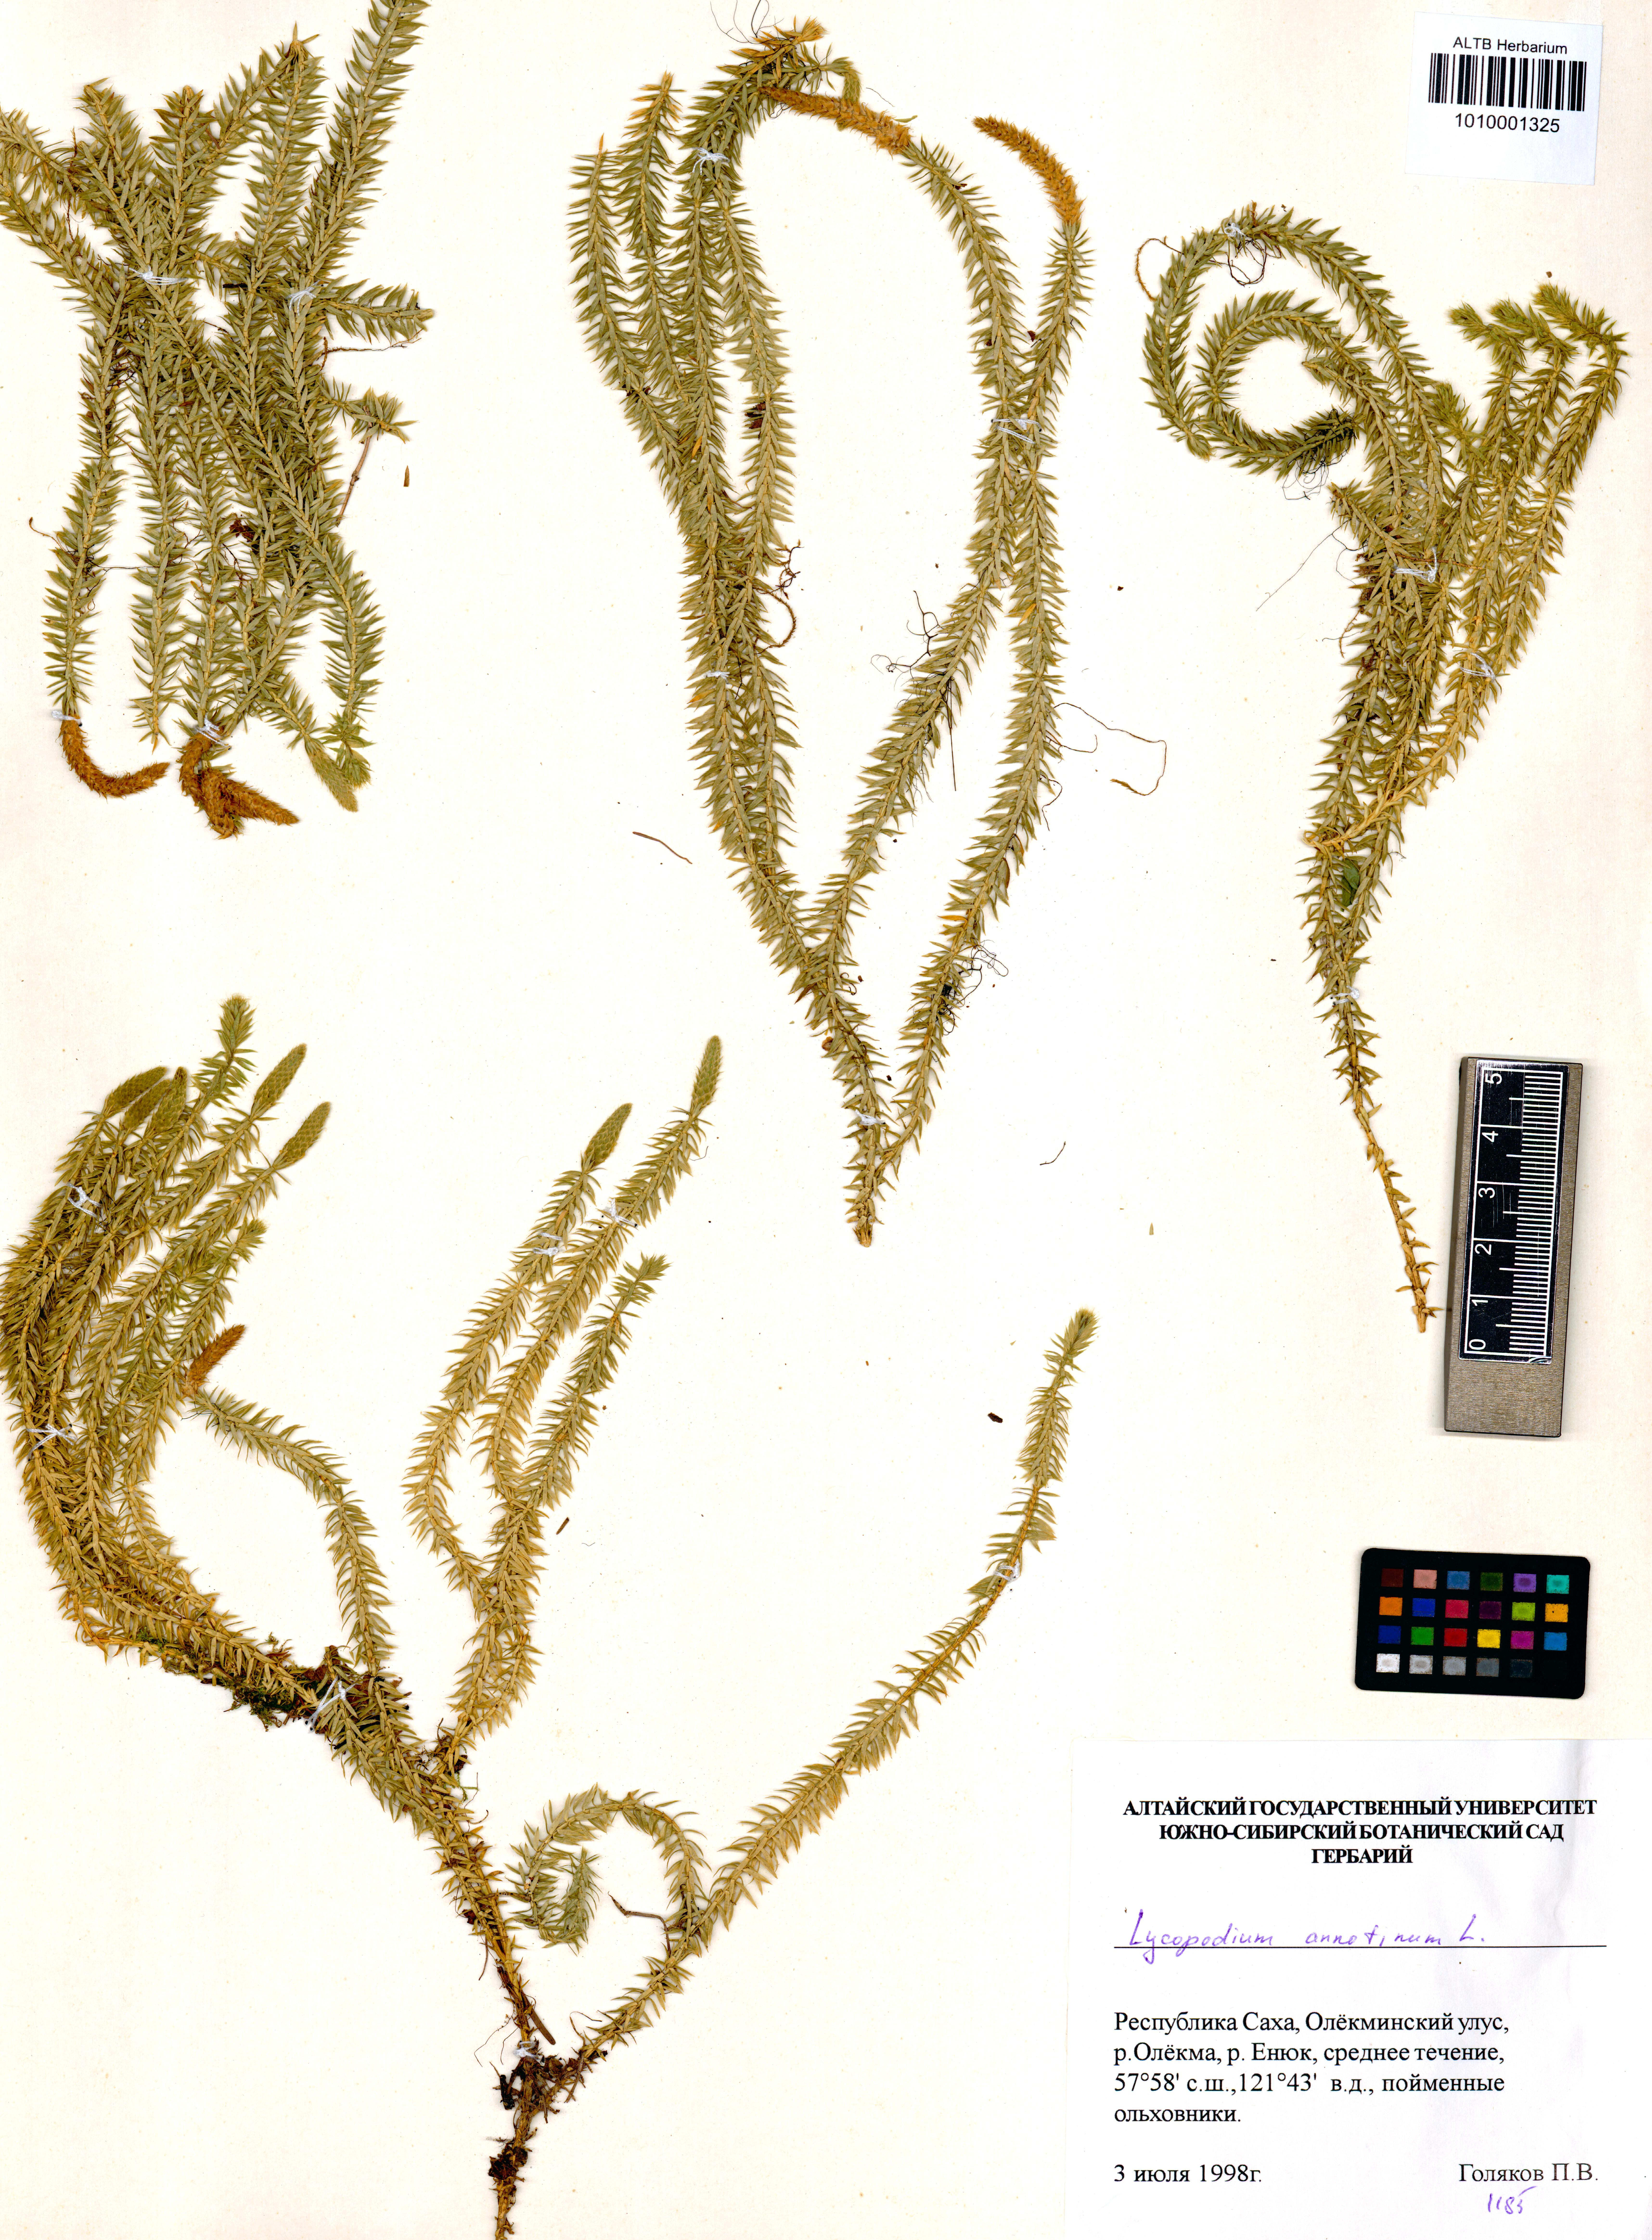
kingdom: Plantae
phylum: Tracheophyta
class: Lycopodiopsida
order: Lycopodiales
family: Lycopodiaceae
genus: Spinulum
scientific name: Spinulum annotinum
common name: Interrupted club-moss
